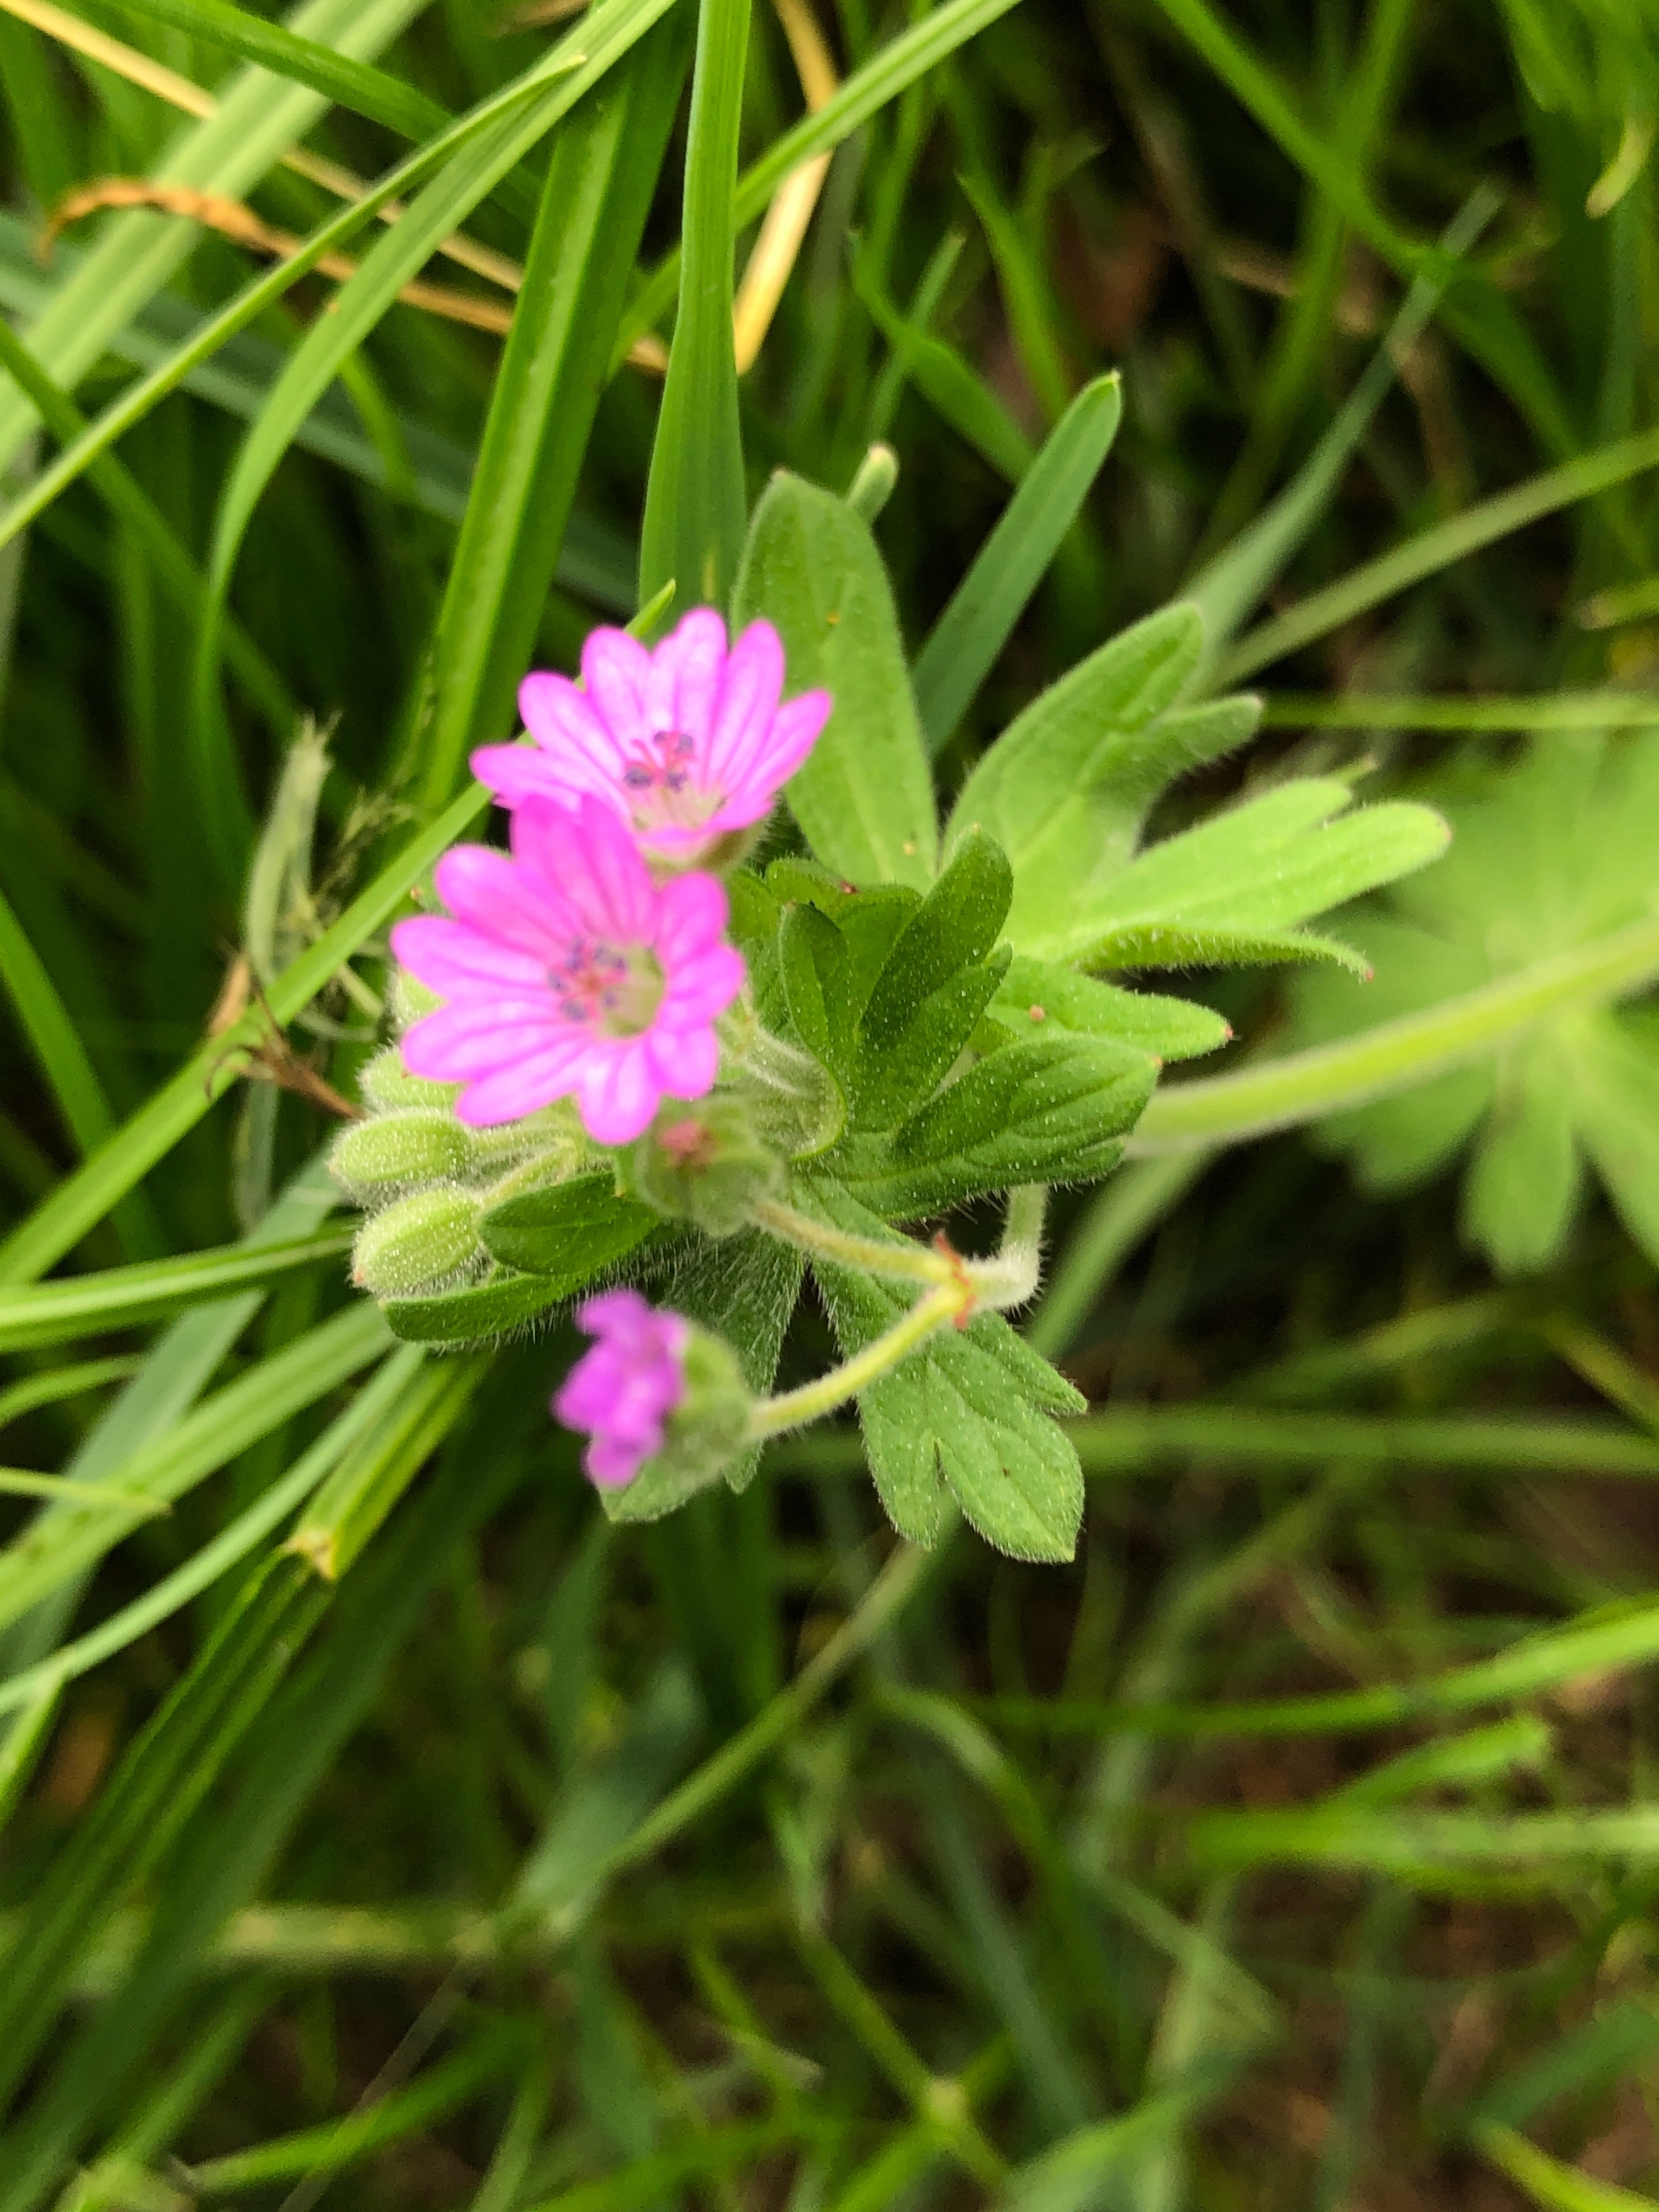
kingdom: Plantae
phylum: Tracheophyta
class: Magnoliopsida
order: Geraniales
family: Geraniaceae
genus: Geranium
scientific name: Geranium molle
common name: Blød storkenæb
